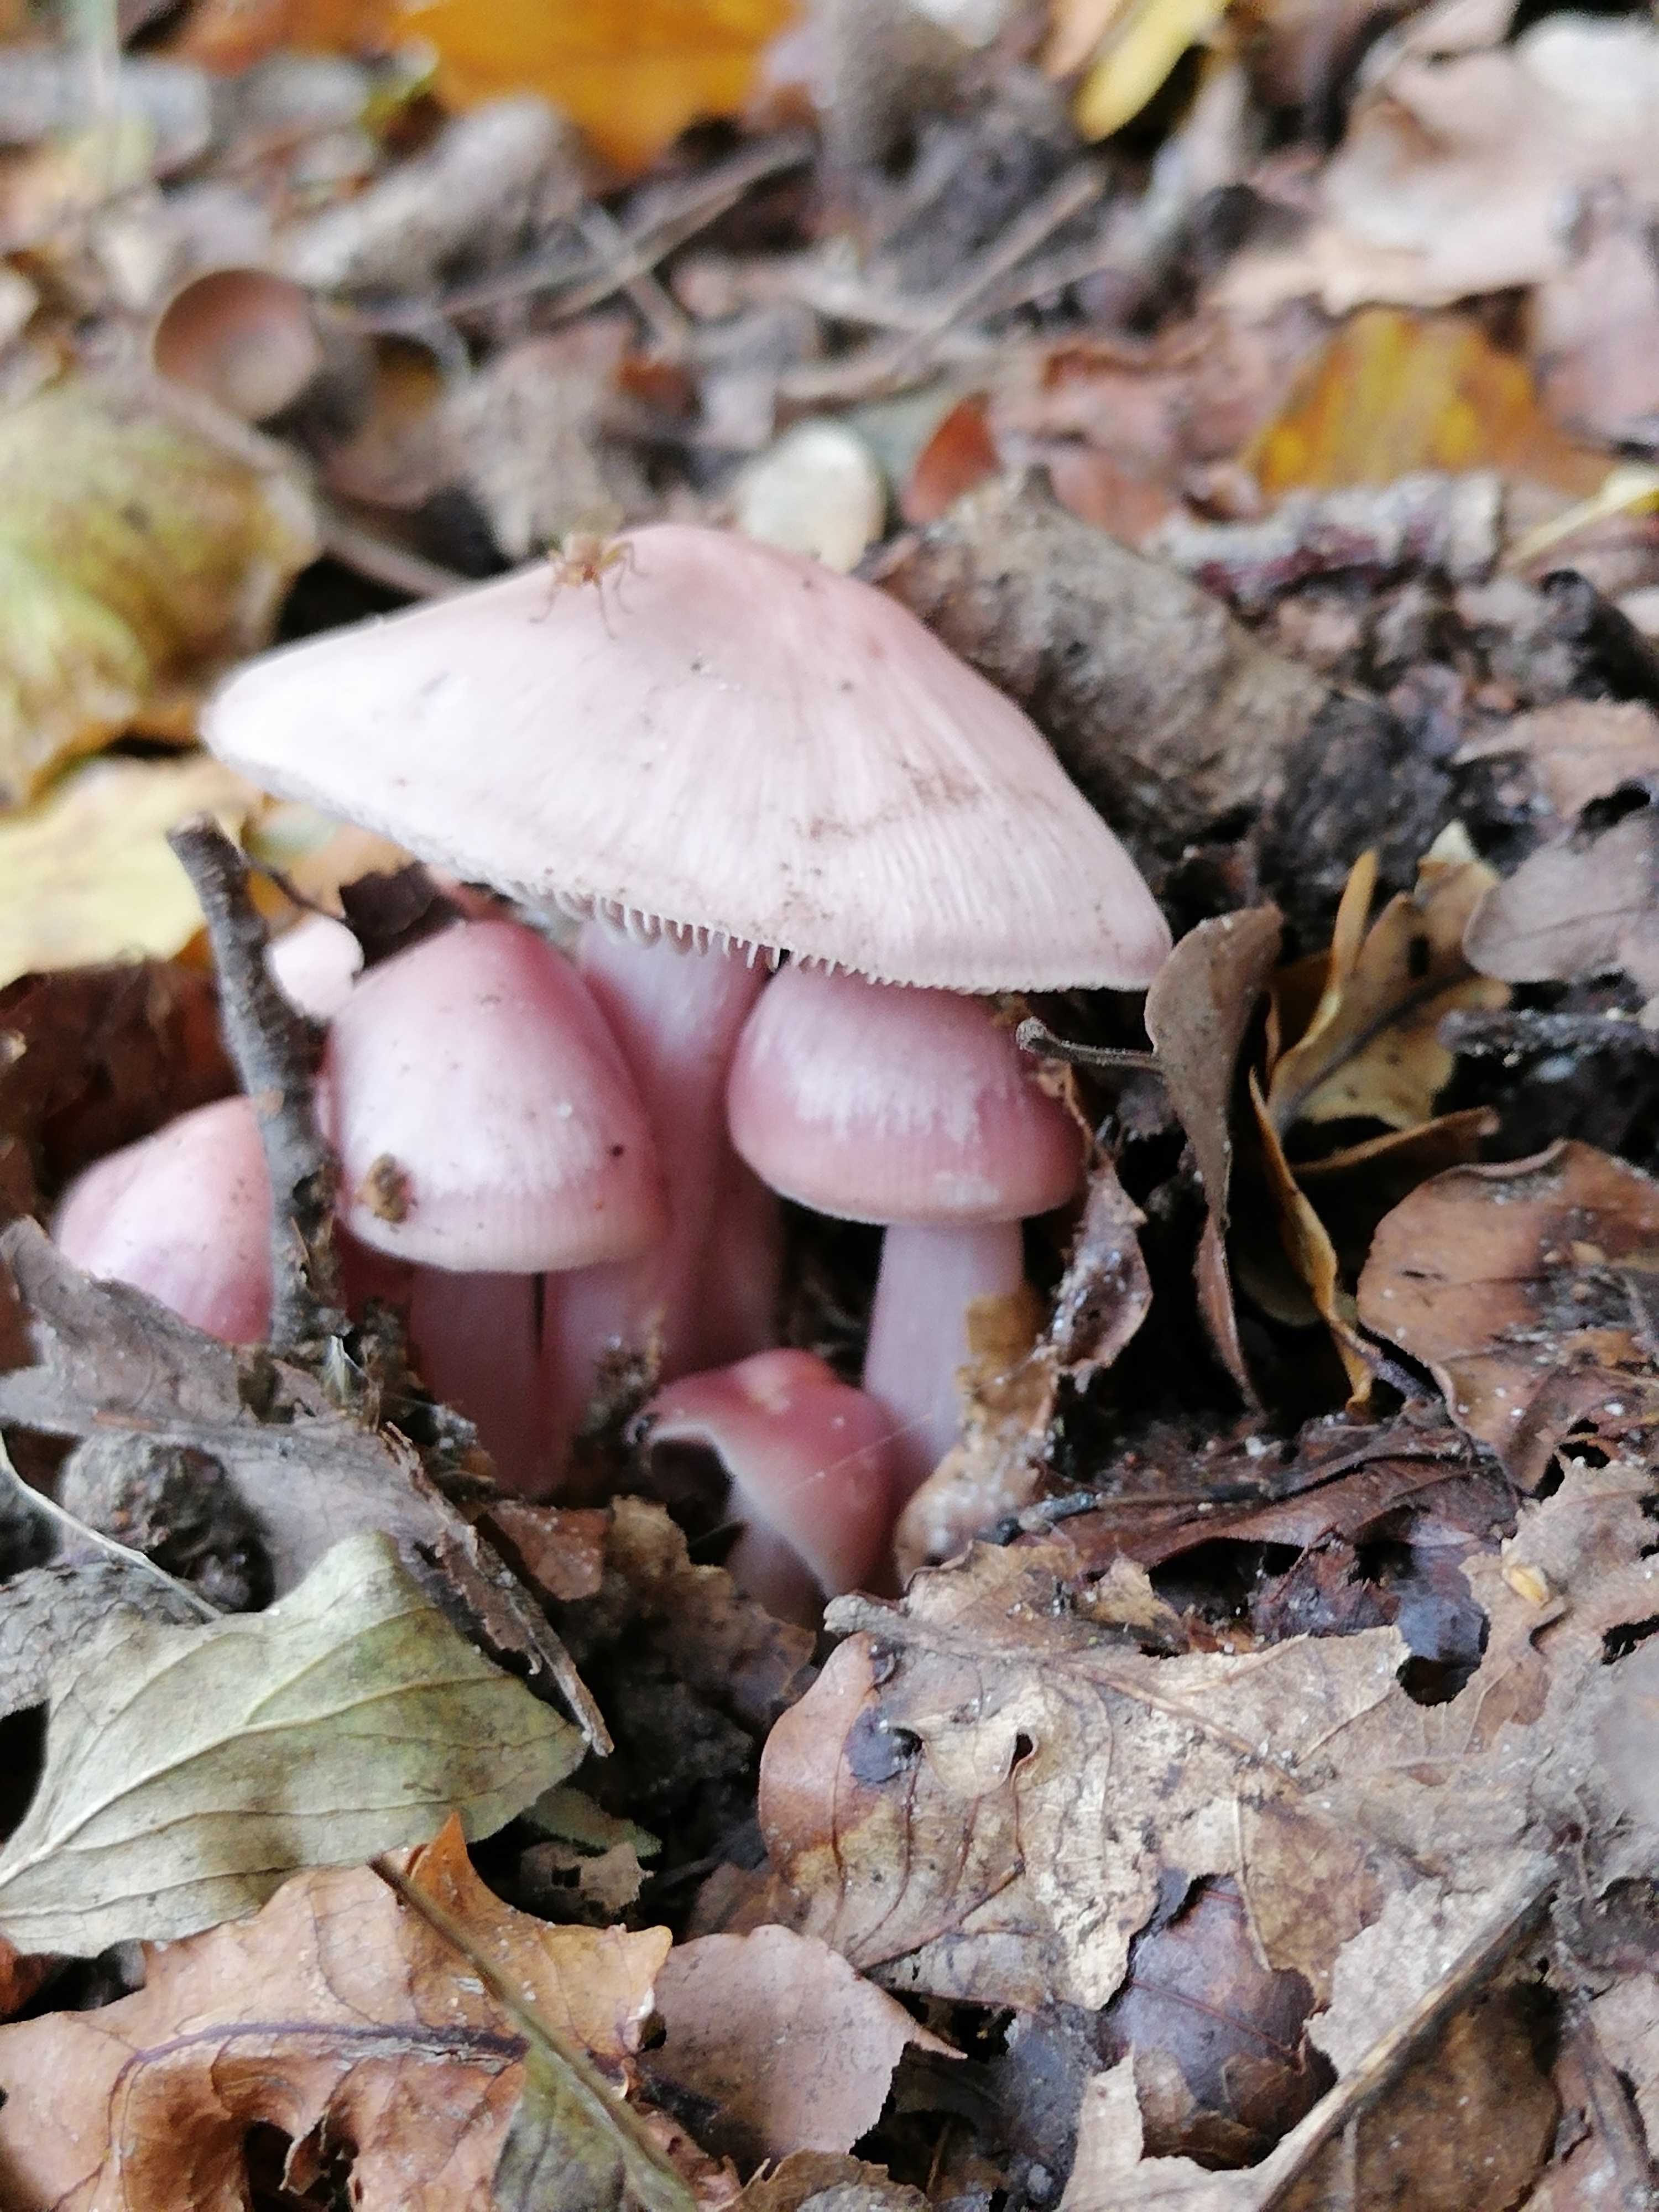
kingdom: Fungi
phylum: Basidiomycota
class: Agaricomycetes
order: Agaricales
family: Mycenaceae
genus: Mycena
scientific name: Mycena rosea
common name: rosa huesvamp
